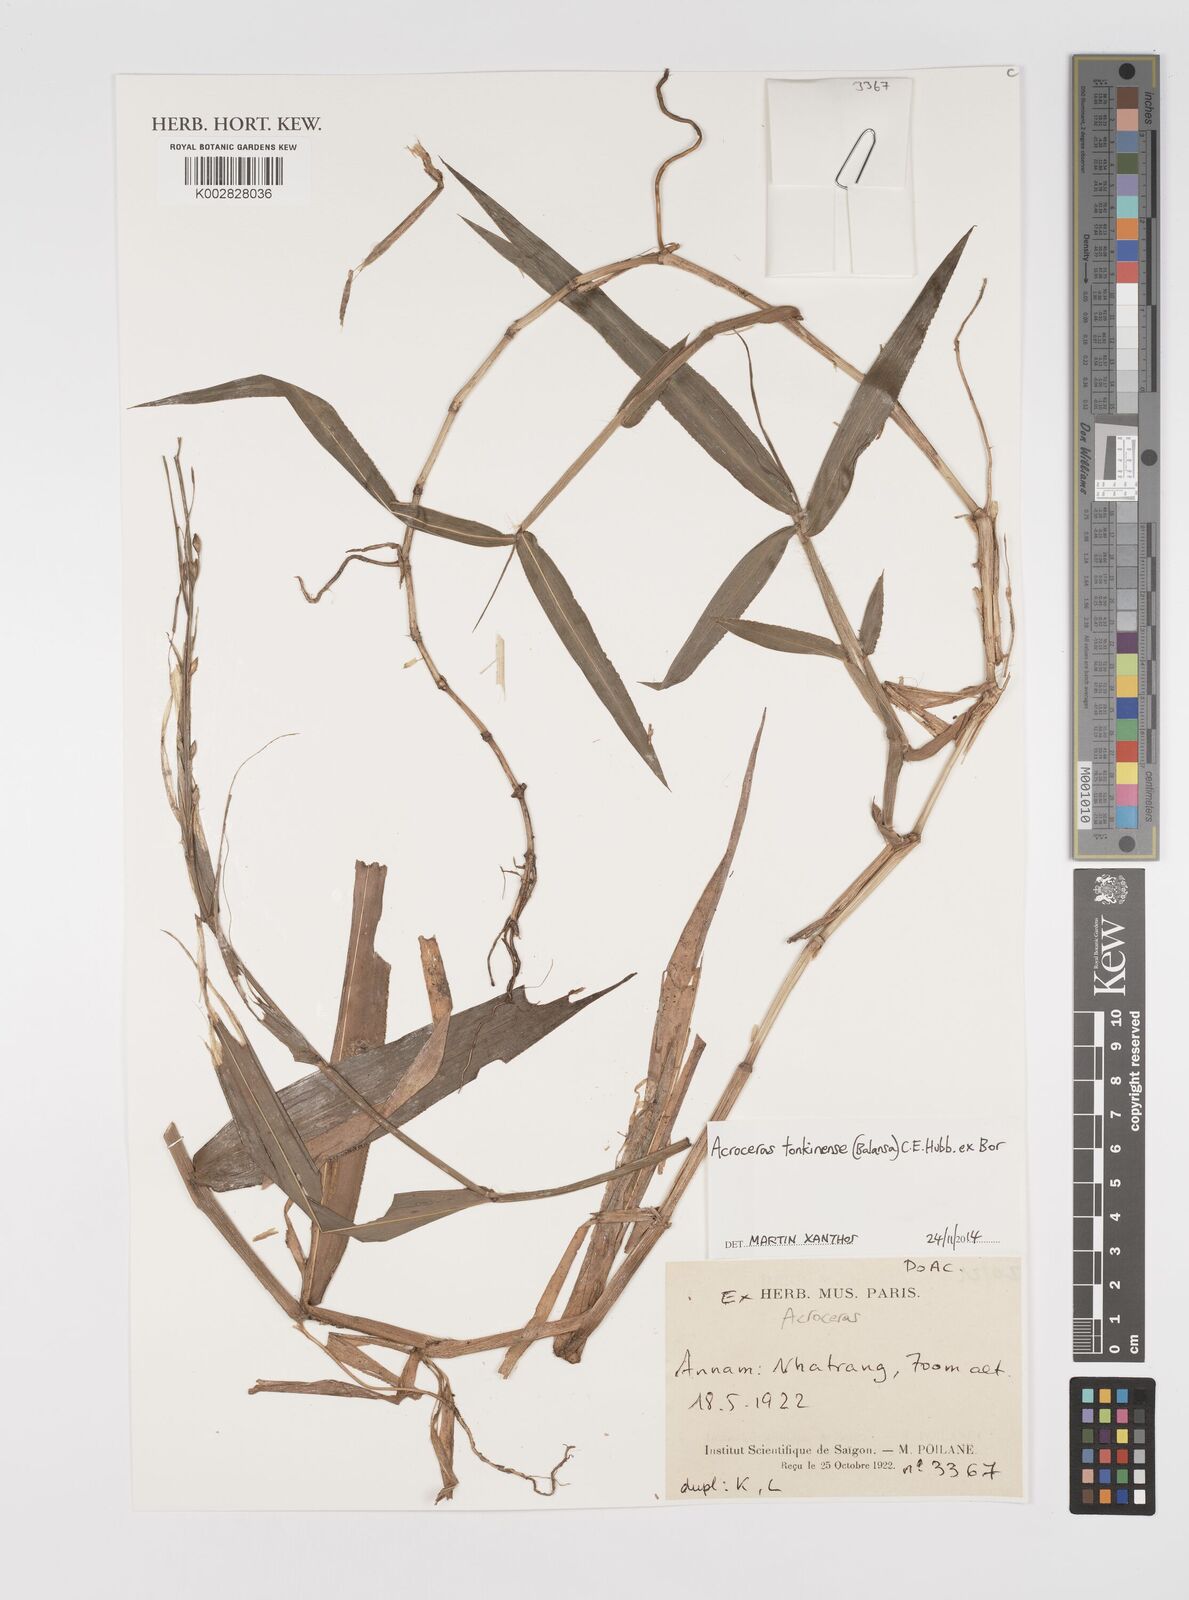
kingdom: Plantae
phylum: Tracheophyta
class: Liliopsida
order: Poales
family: Poaceae
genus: Acroceras
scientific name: Acroceras tonkinense
